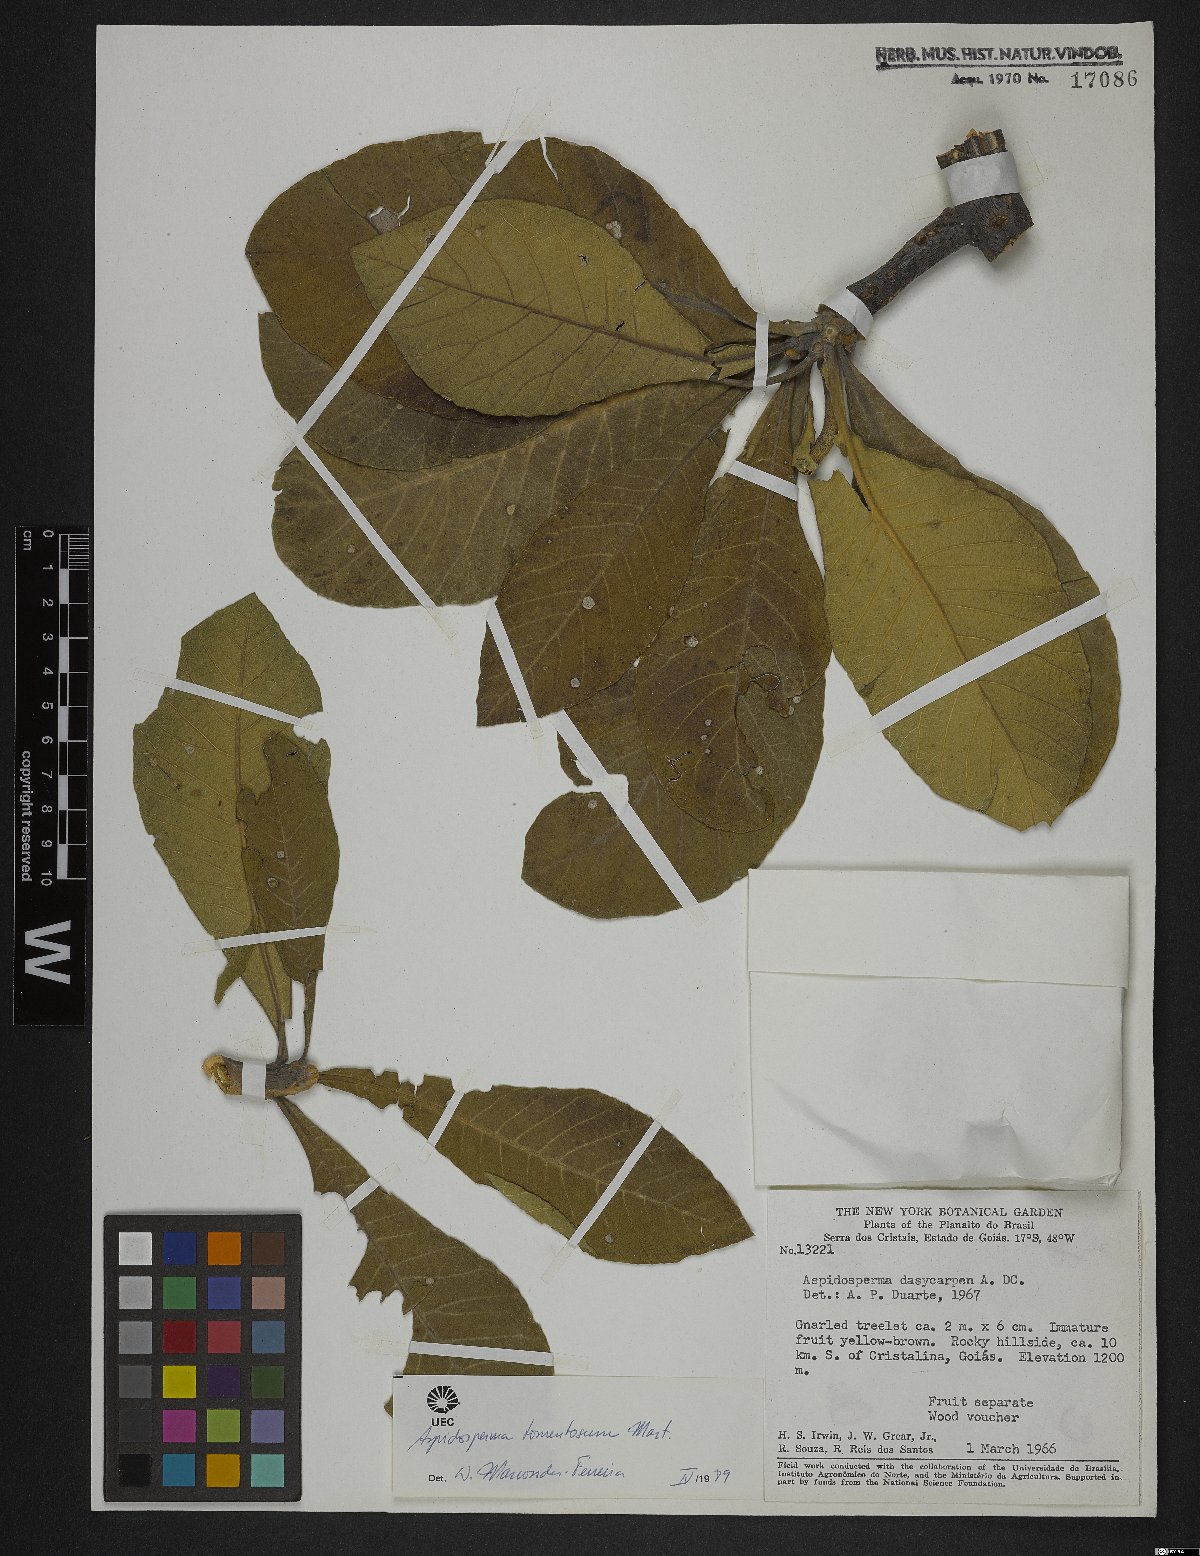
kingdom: Plantae
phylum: Tracheophyta
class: Magnoliopsida
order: Gentianales
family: Apocynaceae
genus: Aspidosperma
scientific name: Aspidosperma tomentosum
